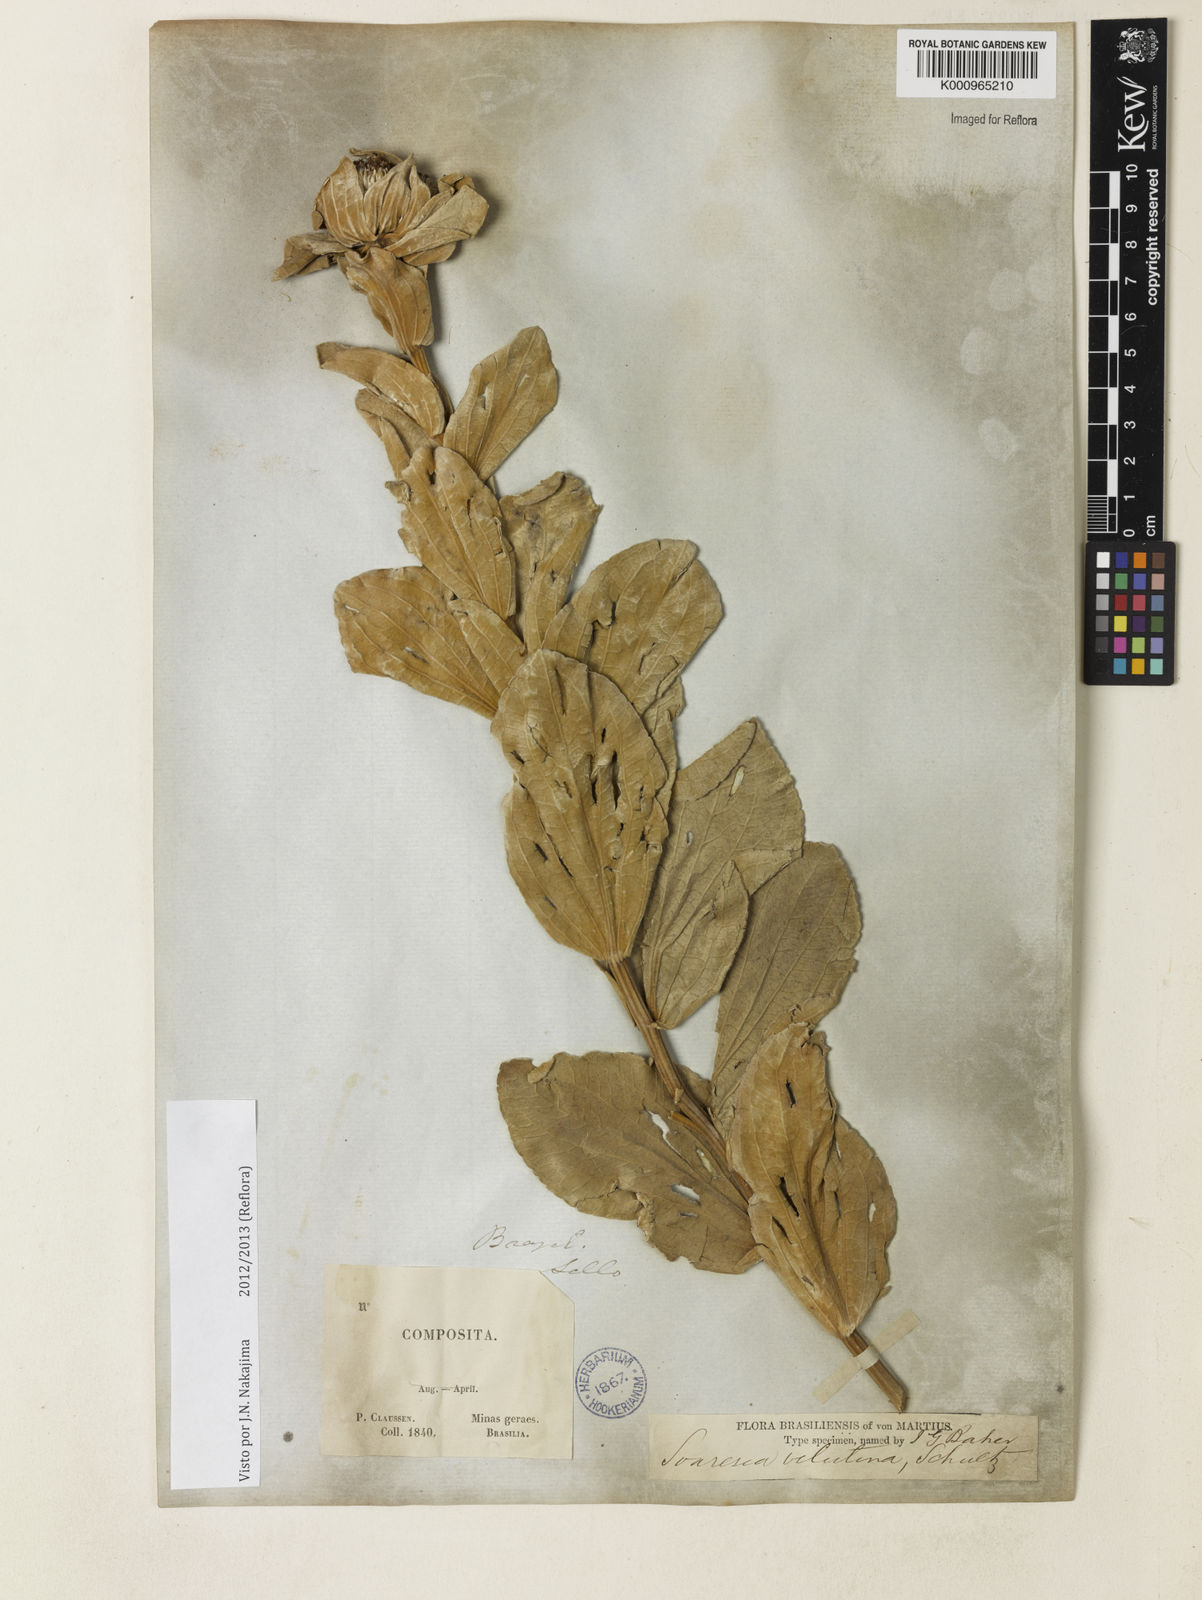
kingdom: Plantae
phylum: Tracheophyta
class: Magnoliopsida
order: Asterales
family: Asteraceae
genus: Soaresia
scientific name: Soaresia velutina
